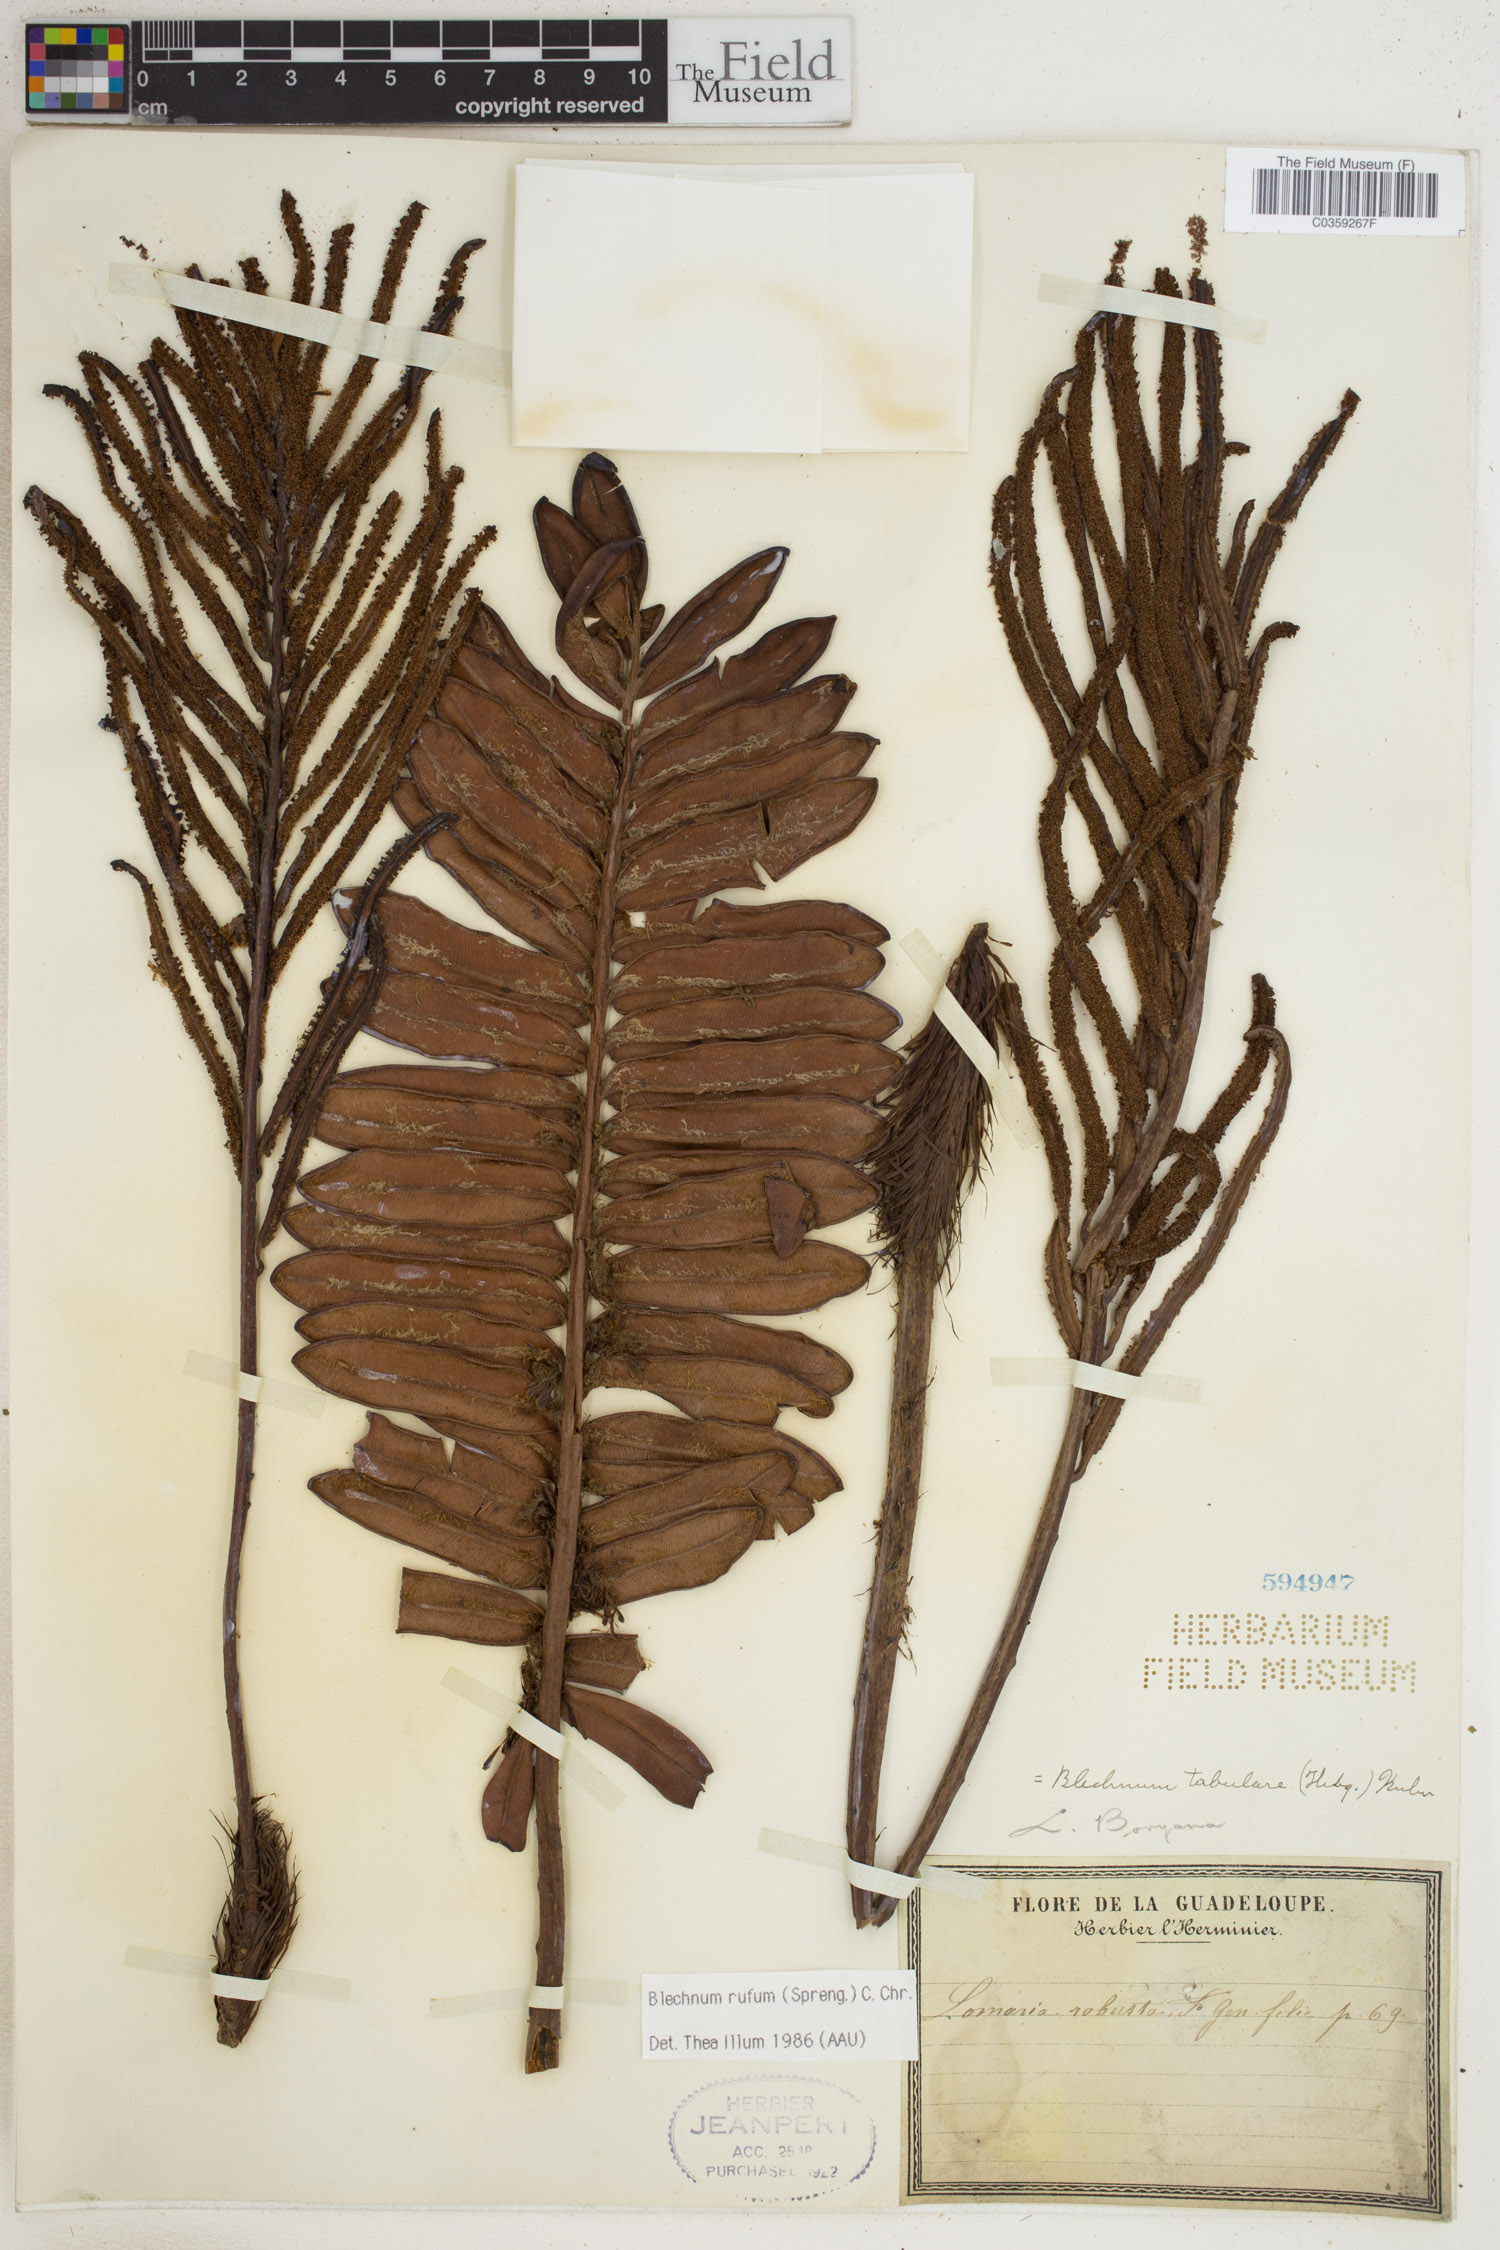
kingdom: Plantae
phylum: Tracheophyta
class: Polypodiopsida
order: Polypodiales
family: Blechnaceae
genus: Lomariocycas
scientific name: Lomariocycas rufa
